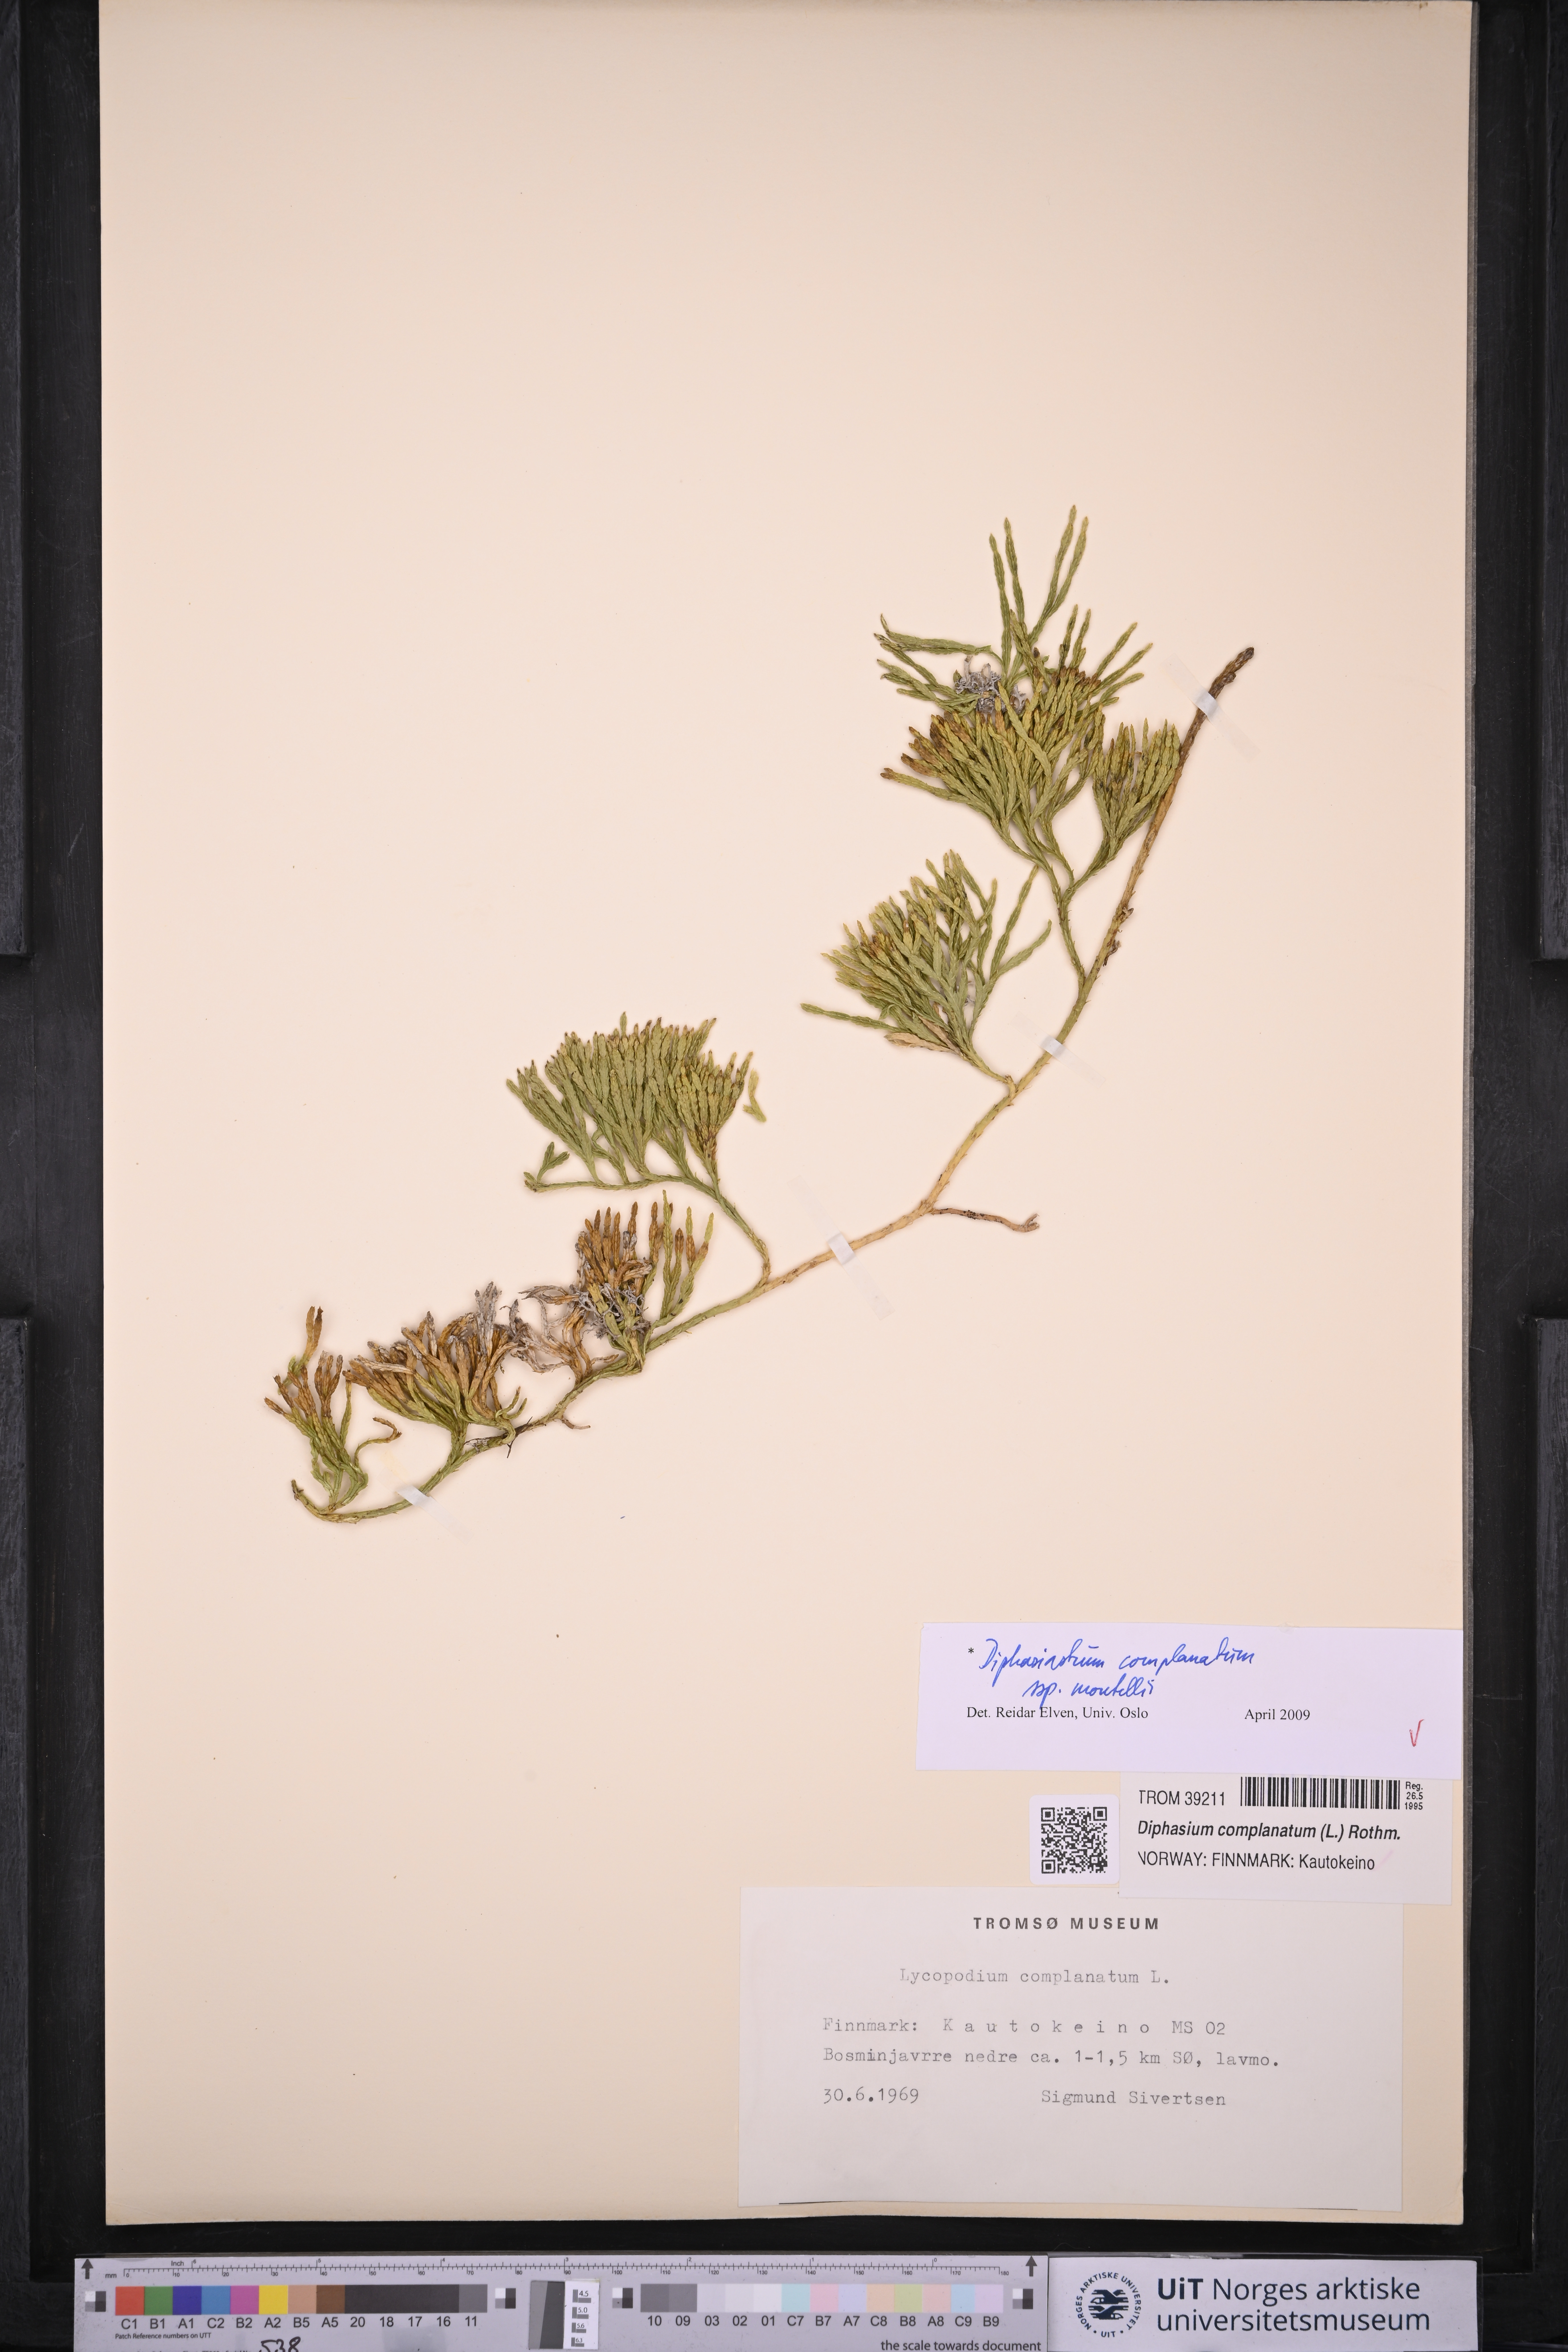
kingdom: Plantae
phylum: Tracheophyta
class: Lycopodiopsida
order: Lycopodiales
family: Lycopodiaceae
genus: Diphasiastrum
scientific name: Diphasiastrum complanatum
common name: Northern running-pine
